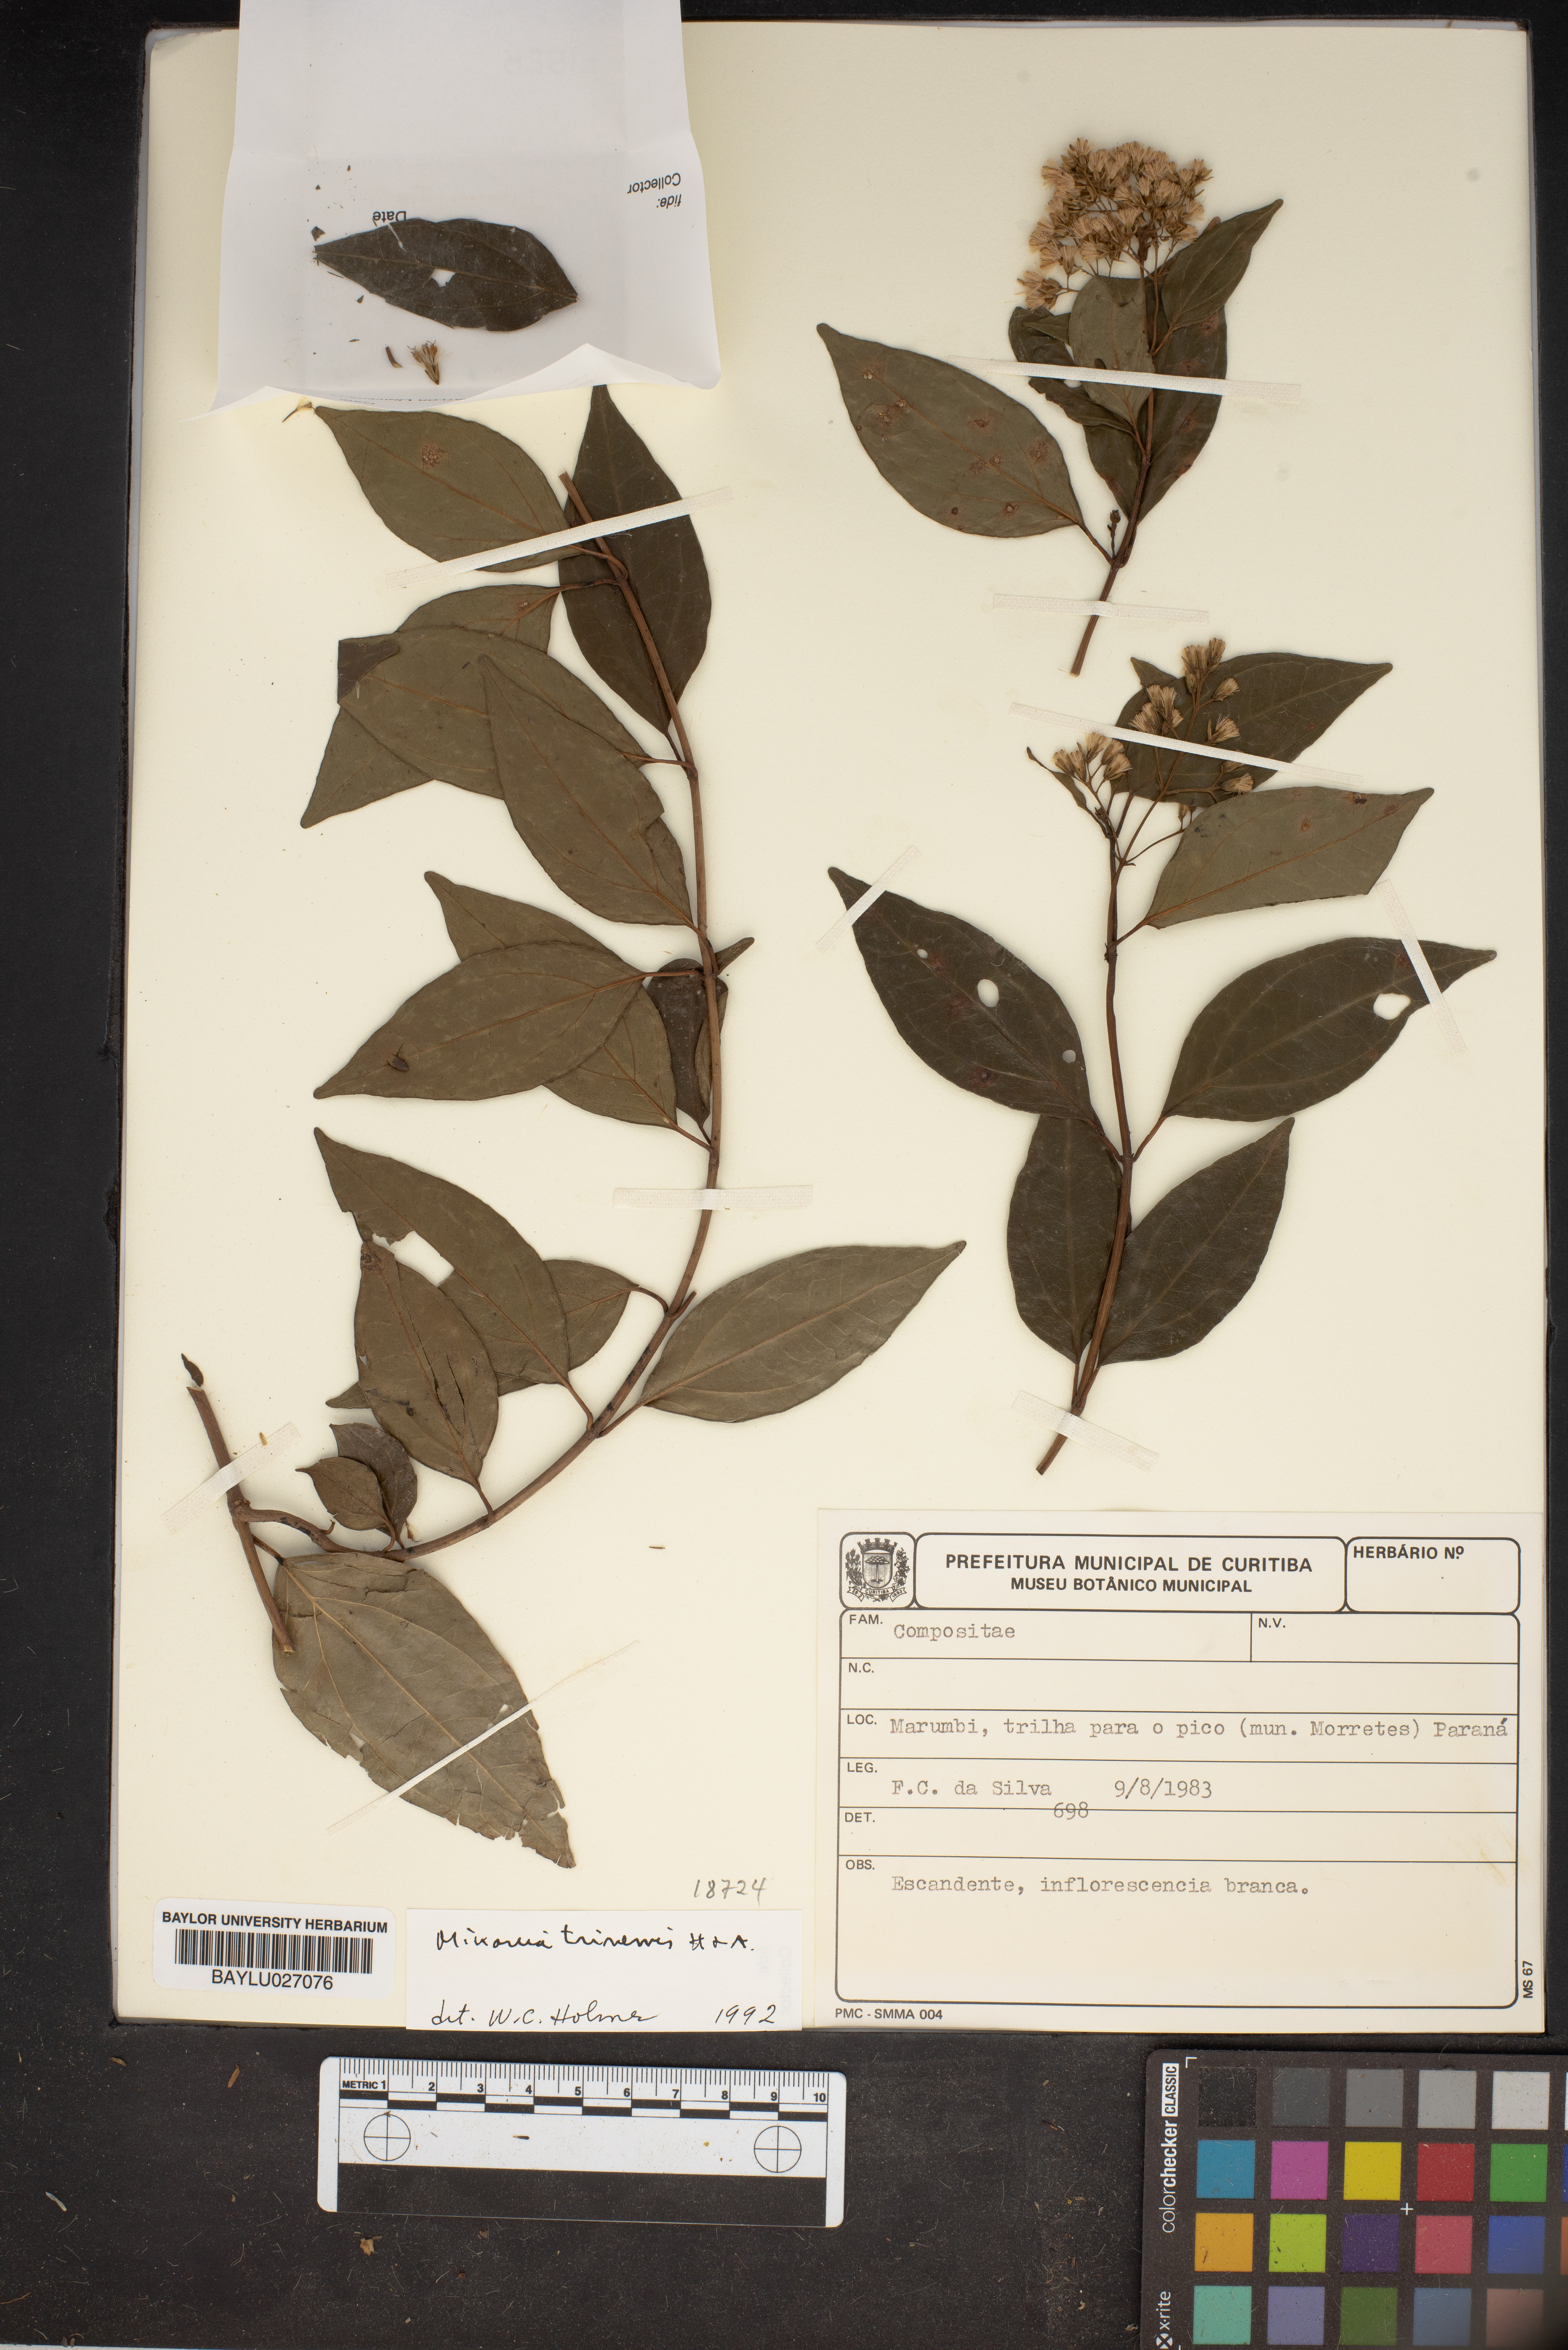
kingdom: Plantae
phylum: Tracheophyta
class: Magnoliopsida
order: Gentianales
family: Apocynaceae
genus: Minaria
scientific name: Minaria
